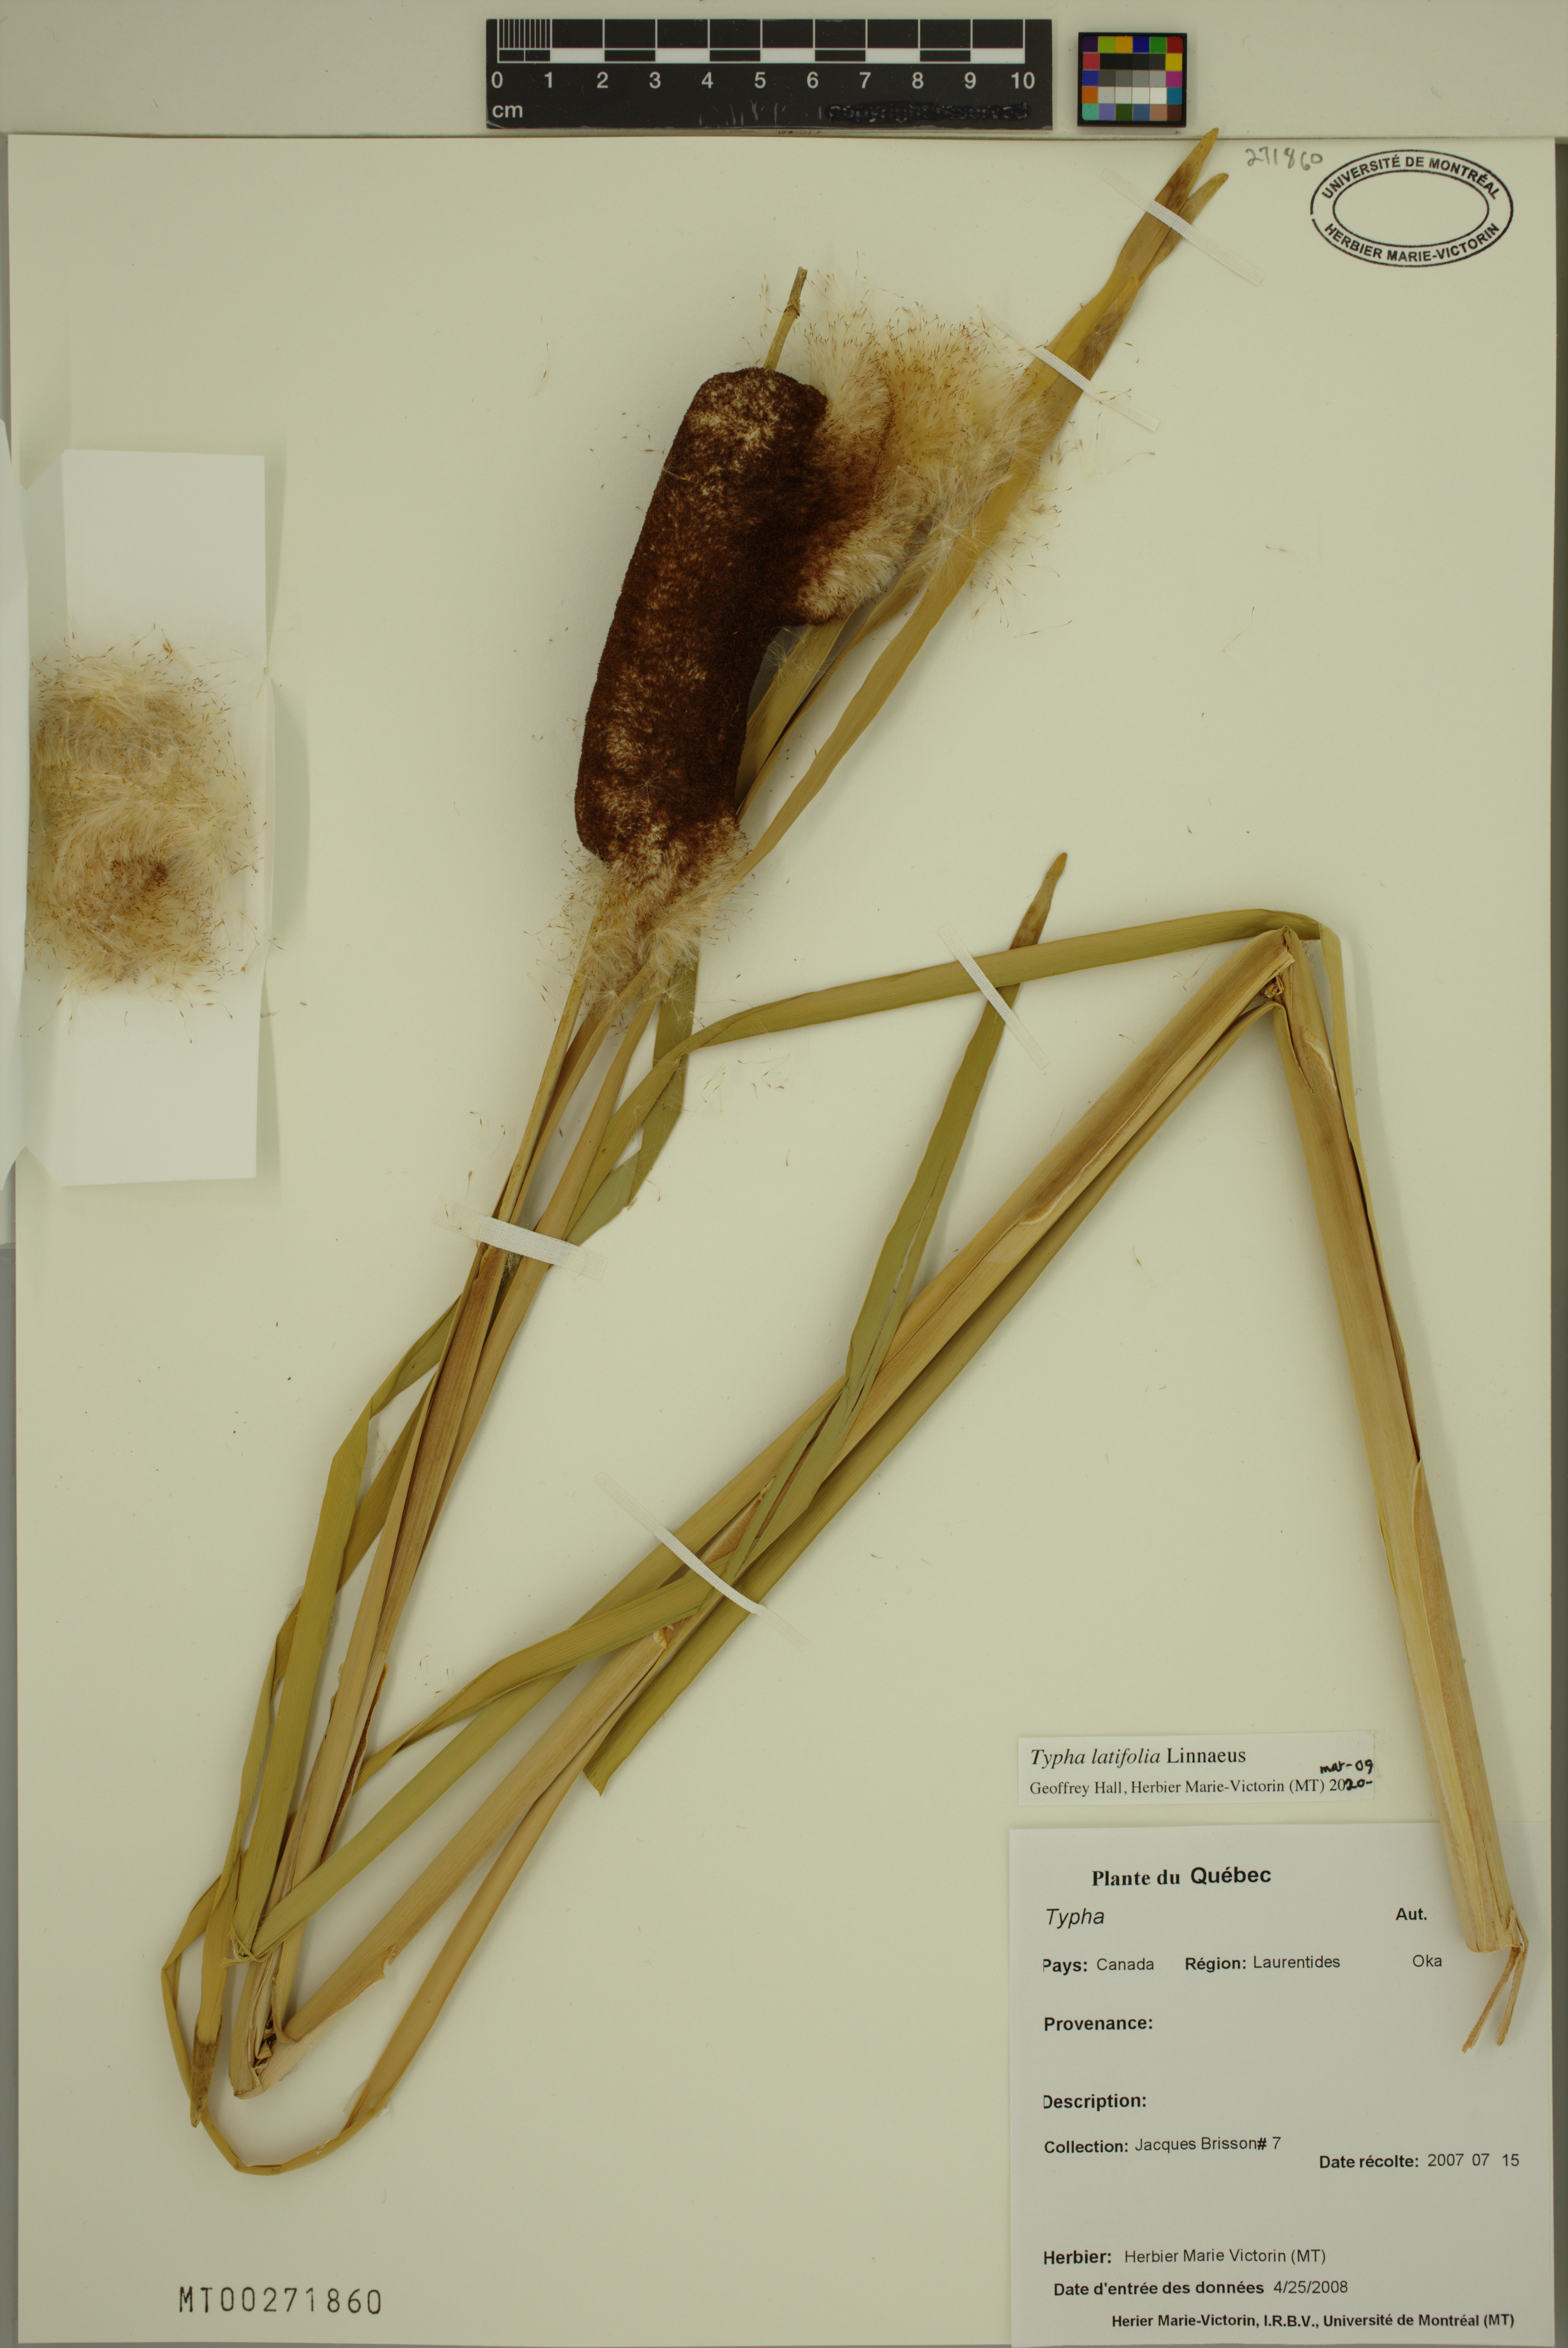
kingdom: Plantae
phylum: Tracheophyta
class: Liliopsida
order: Poales
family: Typhaceae
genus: Typha
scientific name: Typha latifolia
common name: Broadleaf cattail
